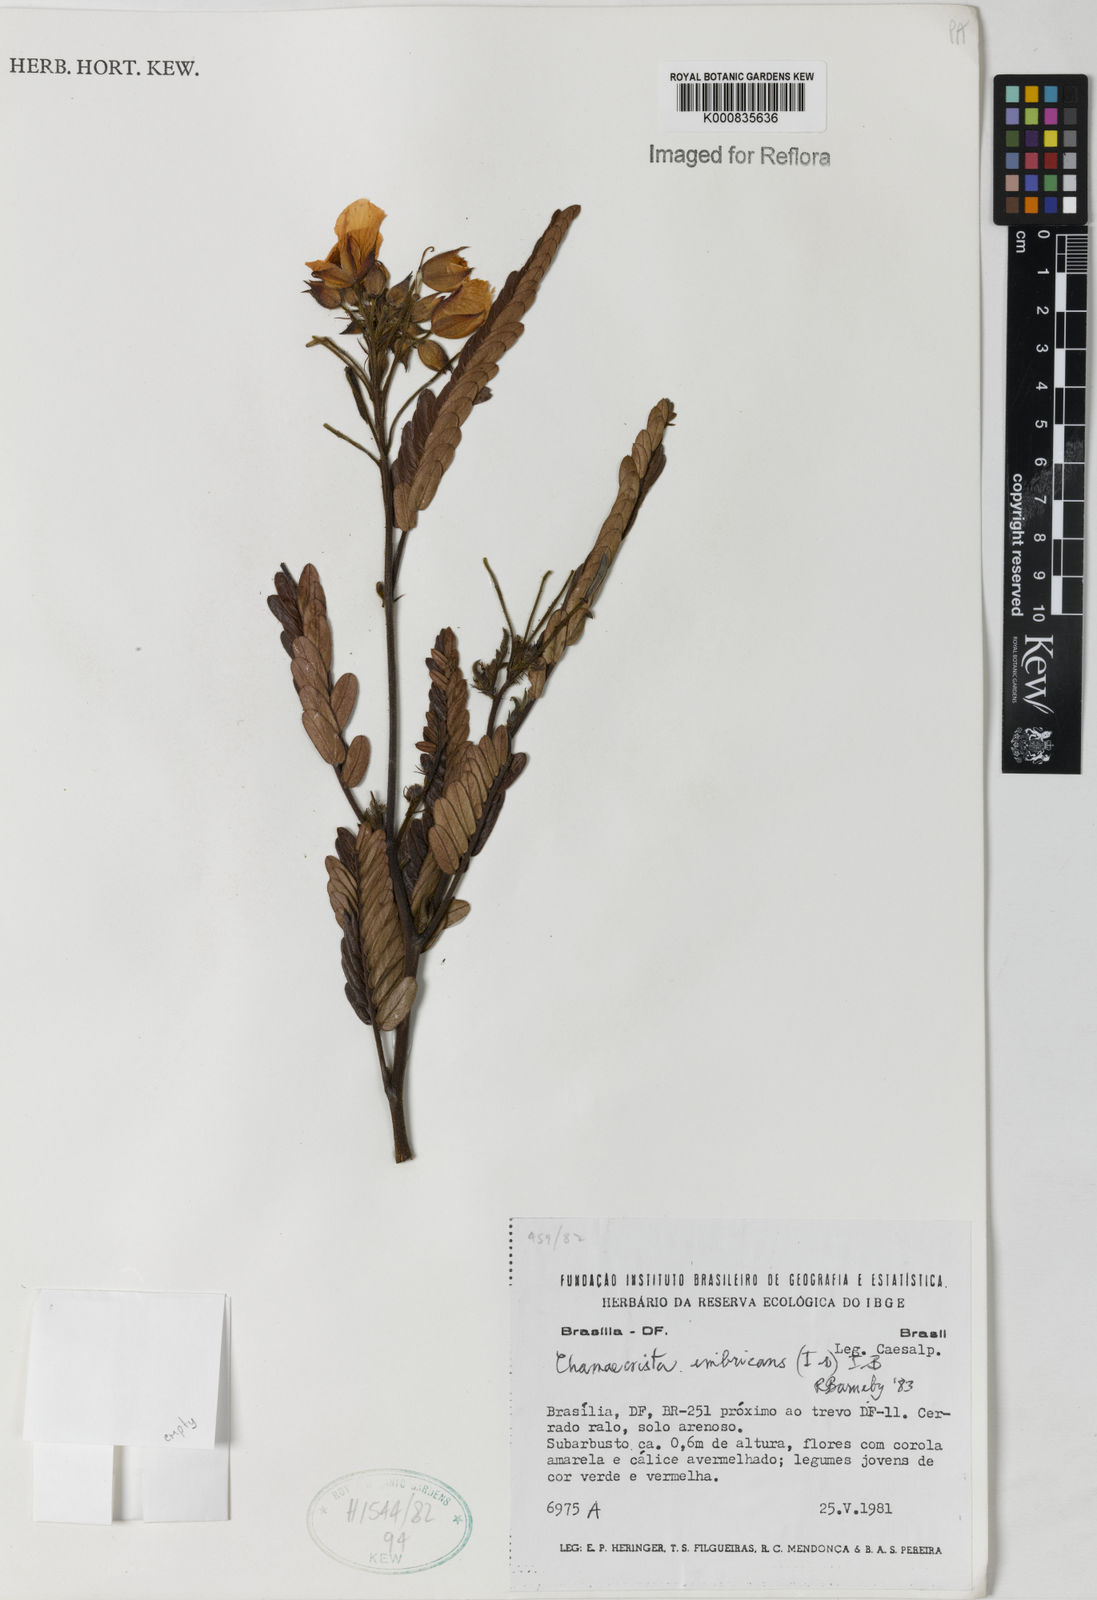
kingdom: Plantae
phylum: Tracheophyta
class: Magnoliopsida
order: Fabales
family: Fabaceae
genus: Chamaecrista
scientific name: Chamaecrista imbricans
